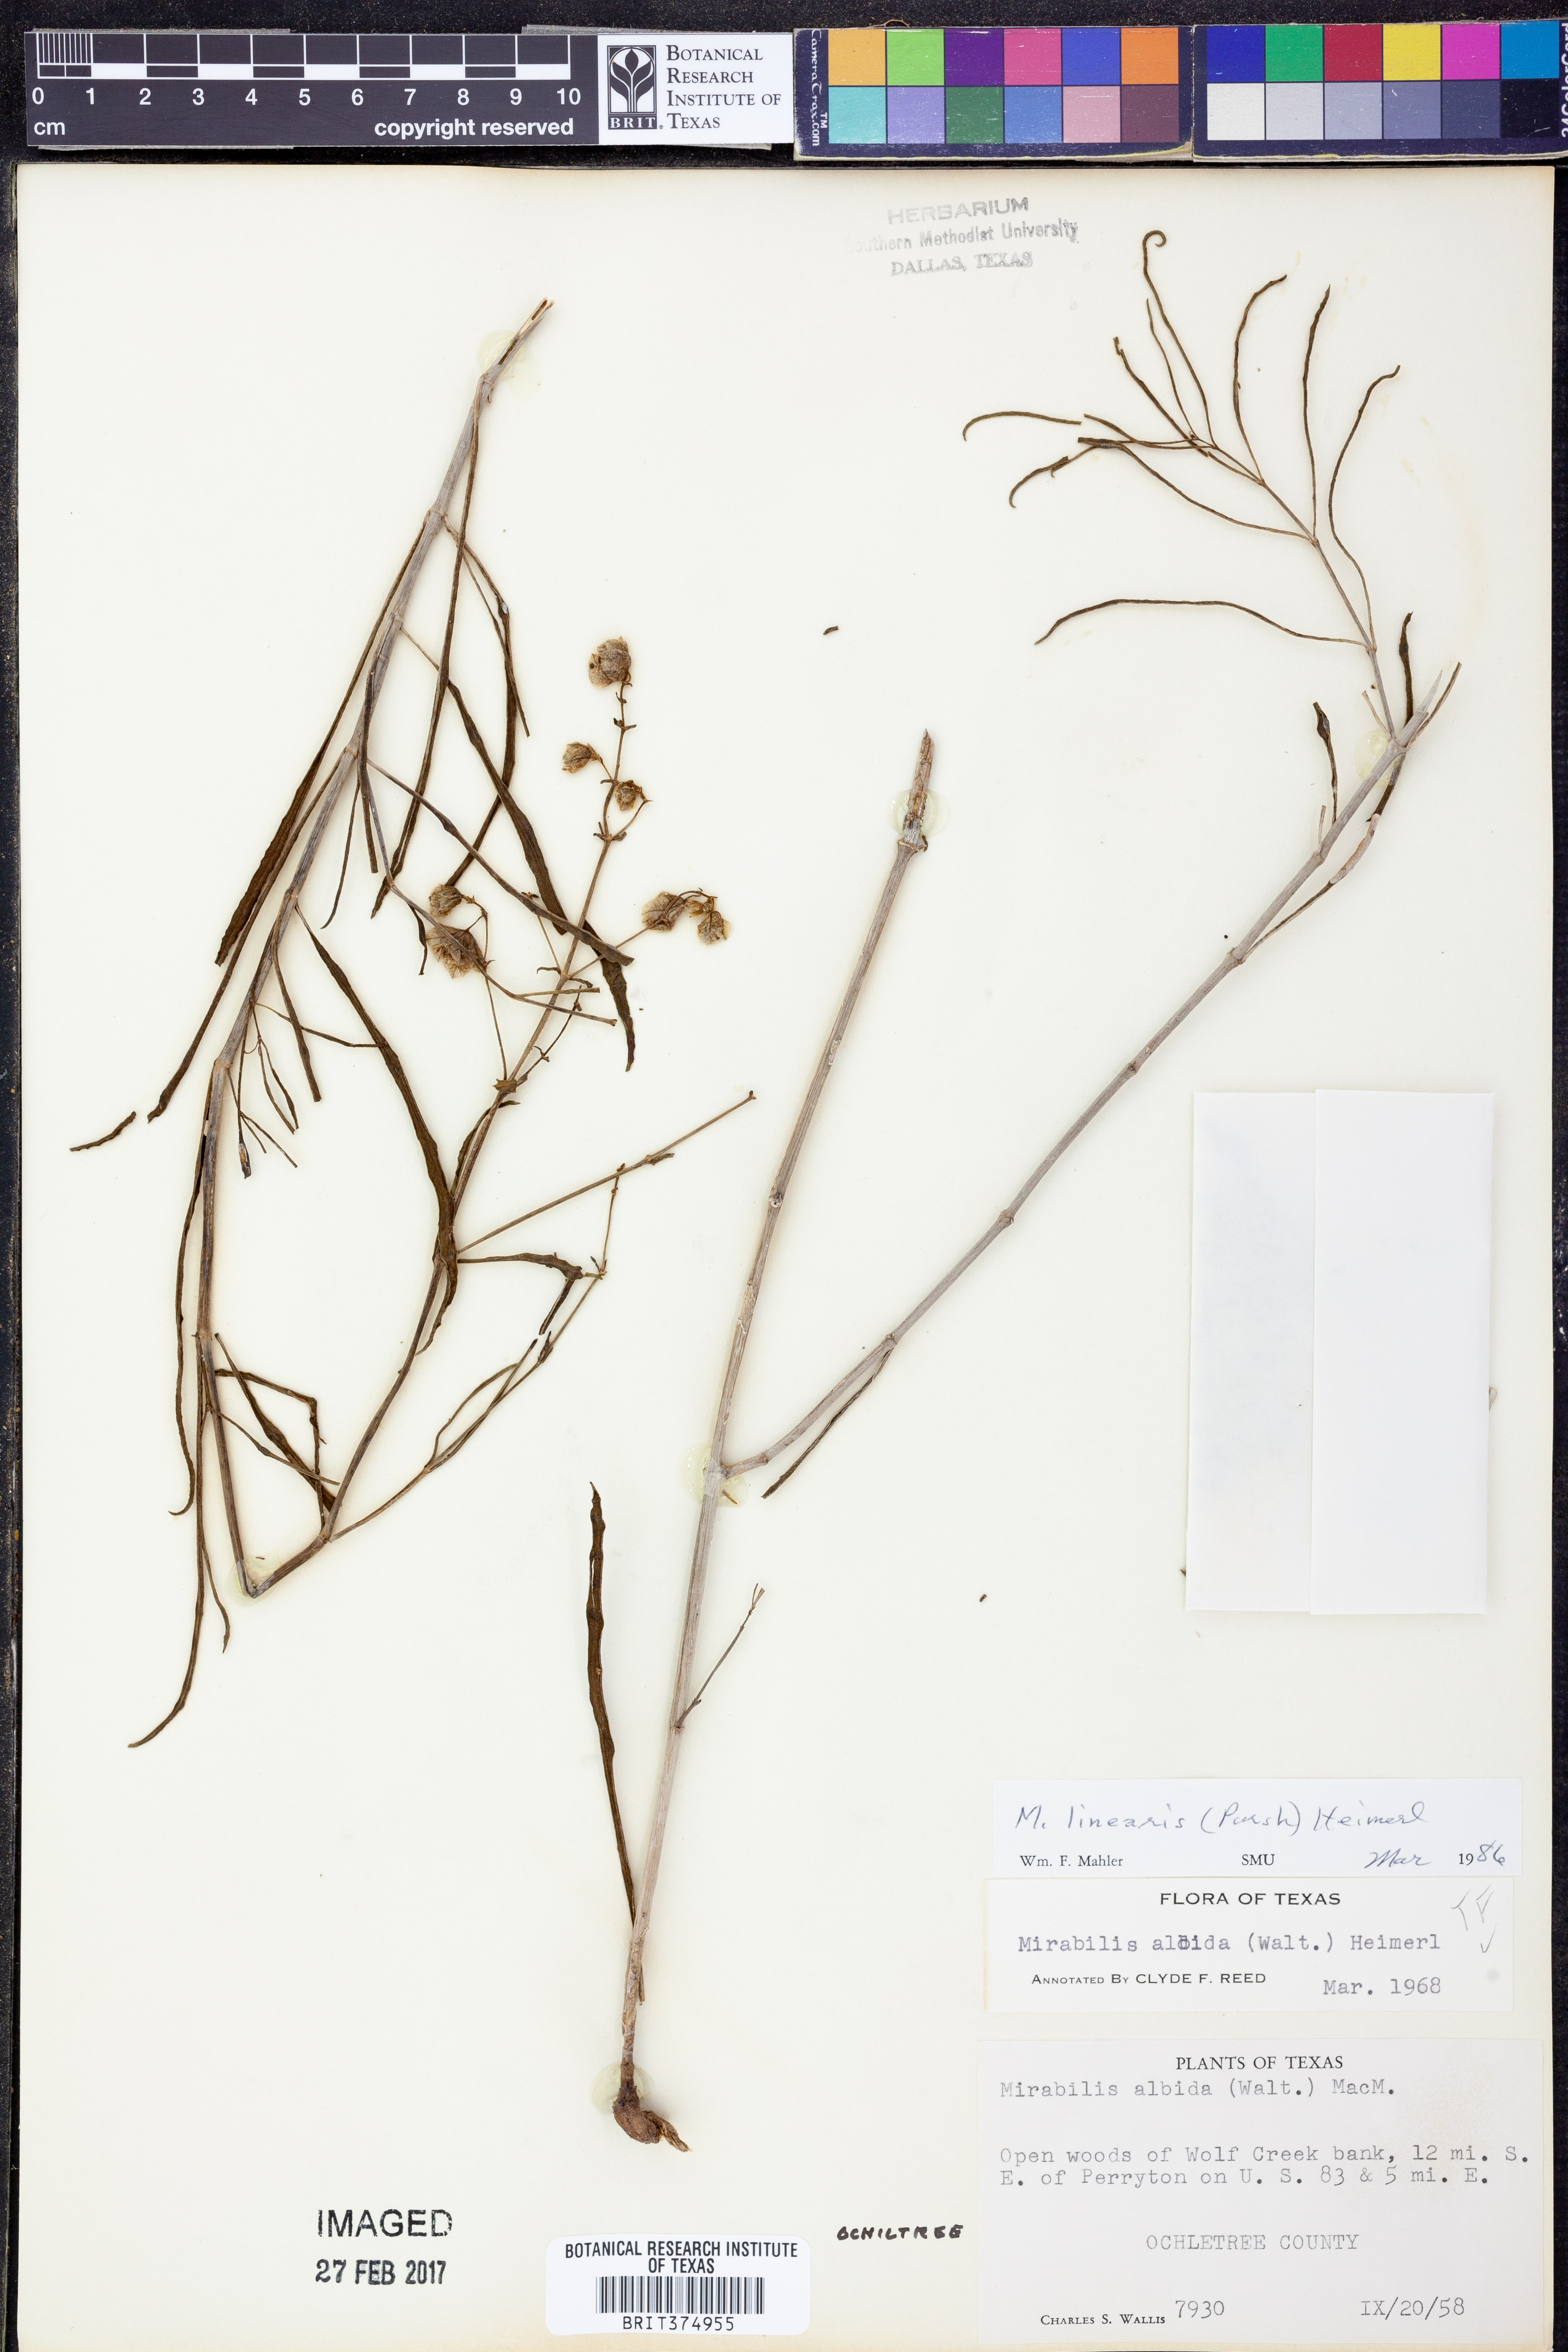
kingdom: Plantae
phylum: Tracheophyta
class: Magnoliopsida
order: Caryophyllales
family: Nyctaginaceae
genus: Mirabilis
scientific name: Mirabilis linearis
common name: Linear-leaved four-o'clock
